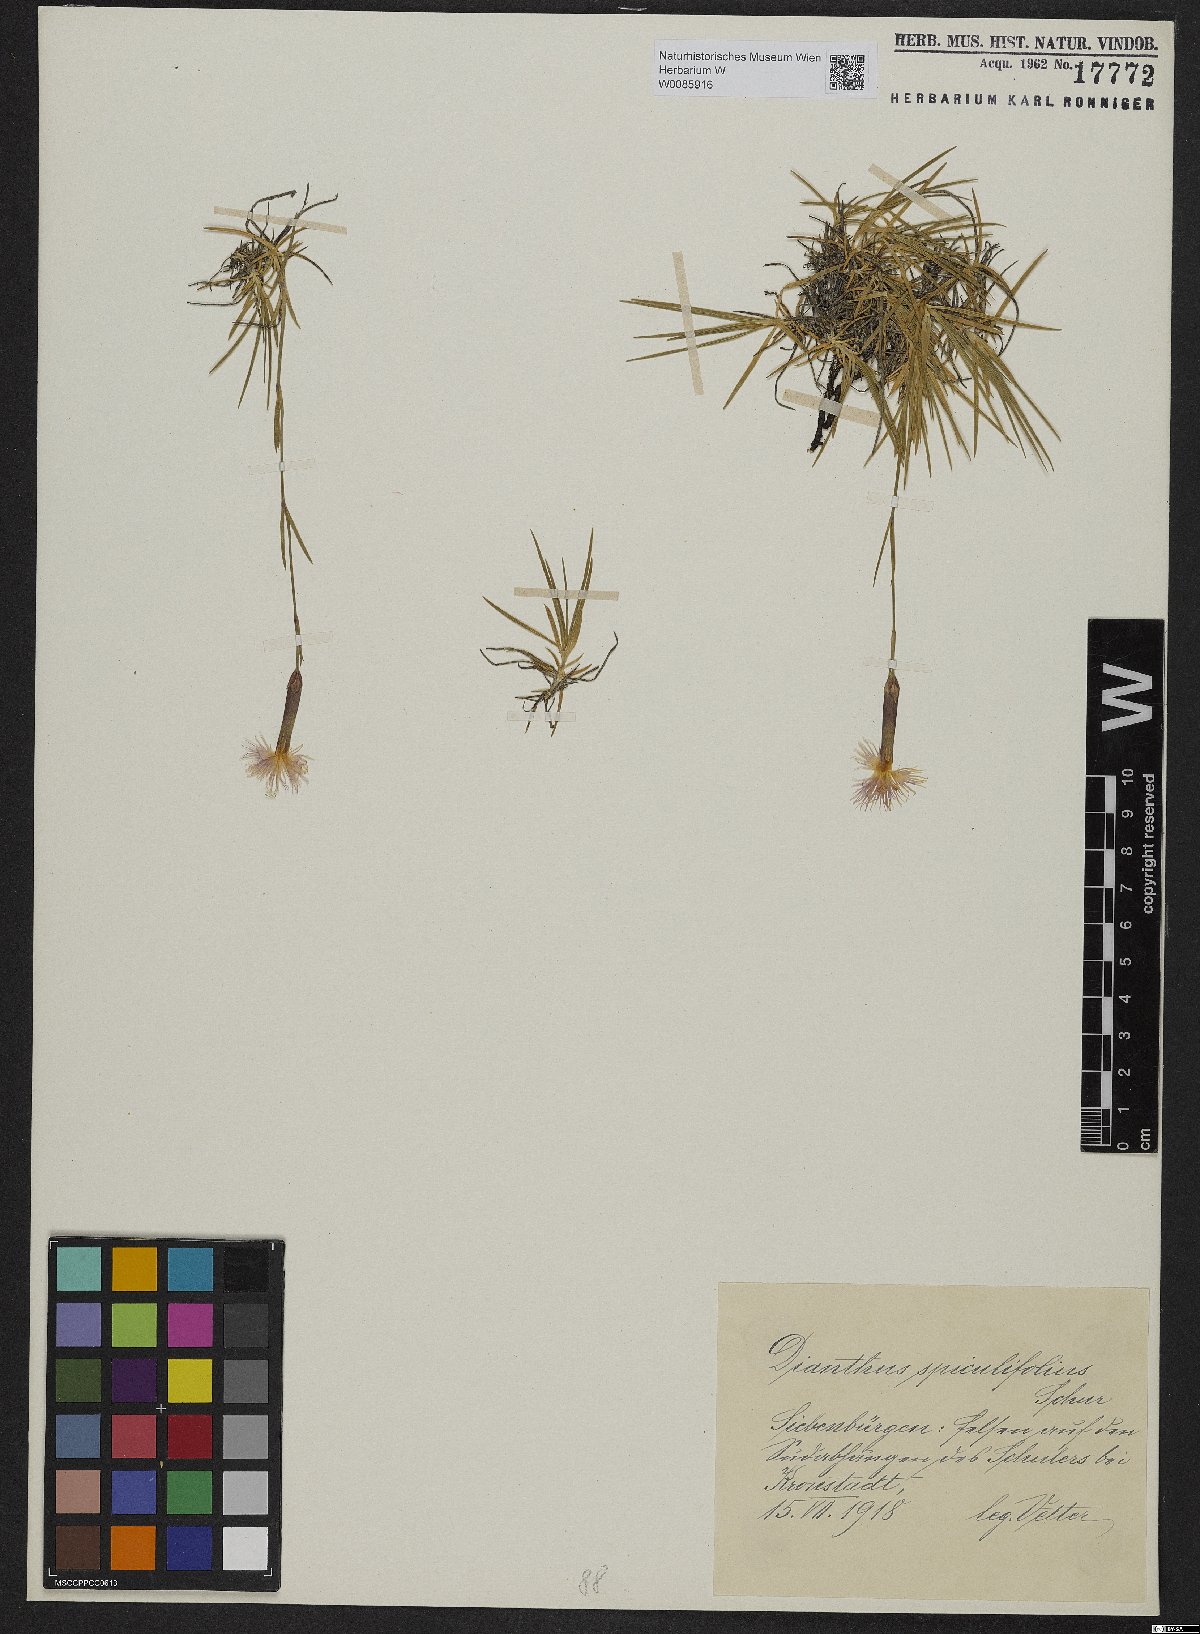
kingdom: Plantae
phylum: Tracheophyta
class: Magnoliopsida
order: Caryophyllales
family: Caryophyllaceae
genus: Dianthus
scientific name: Dianthus spiculifolius
